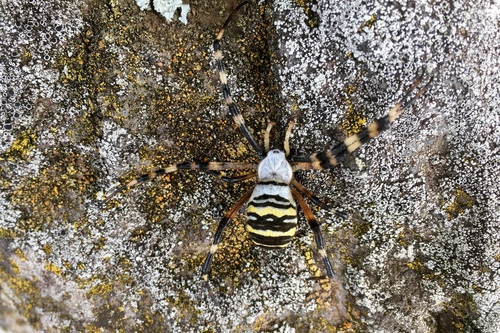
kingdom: Animalia
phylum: Arthropoda
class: Arachnida
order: Araneae
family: Araneidae
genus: Argiope
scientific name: Argiope bruennichi
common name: Wasp spider
